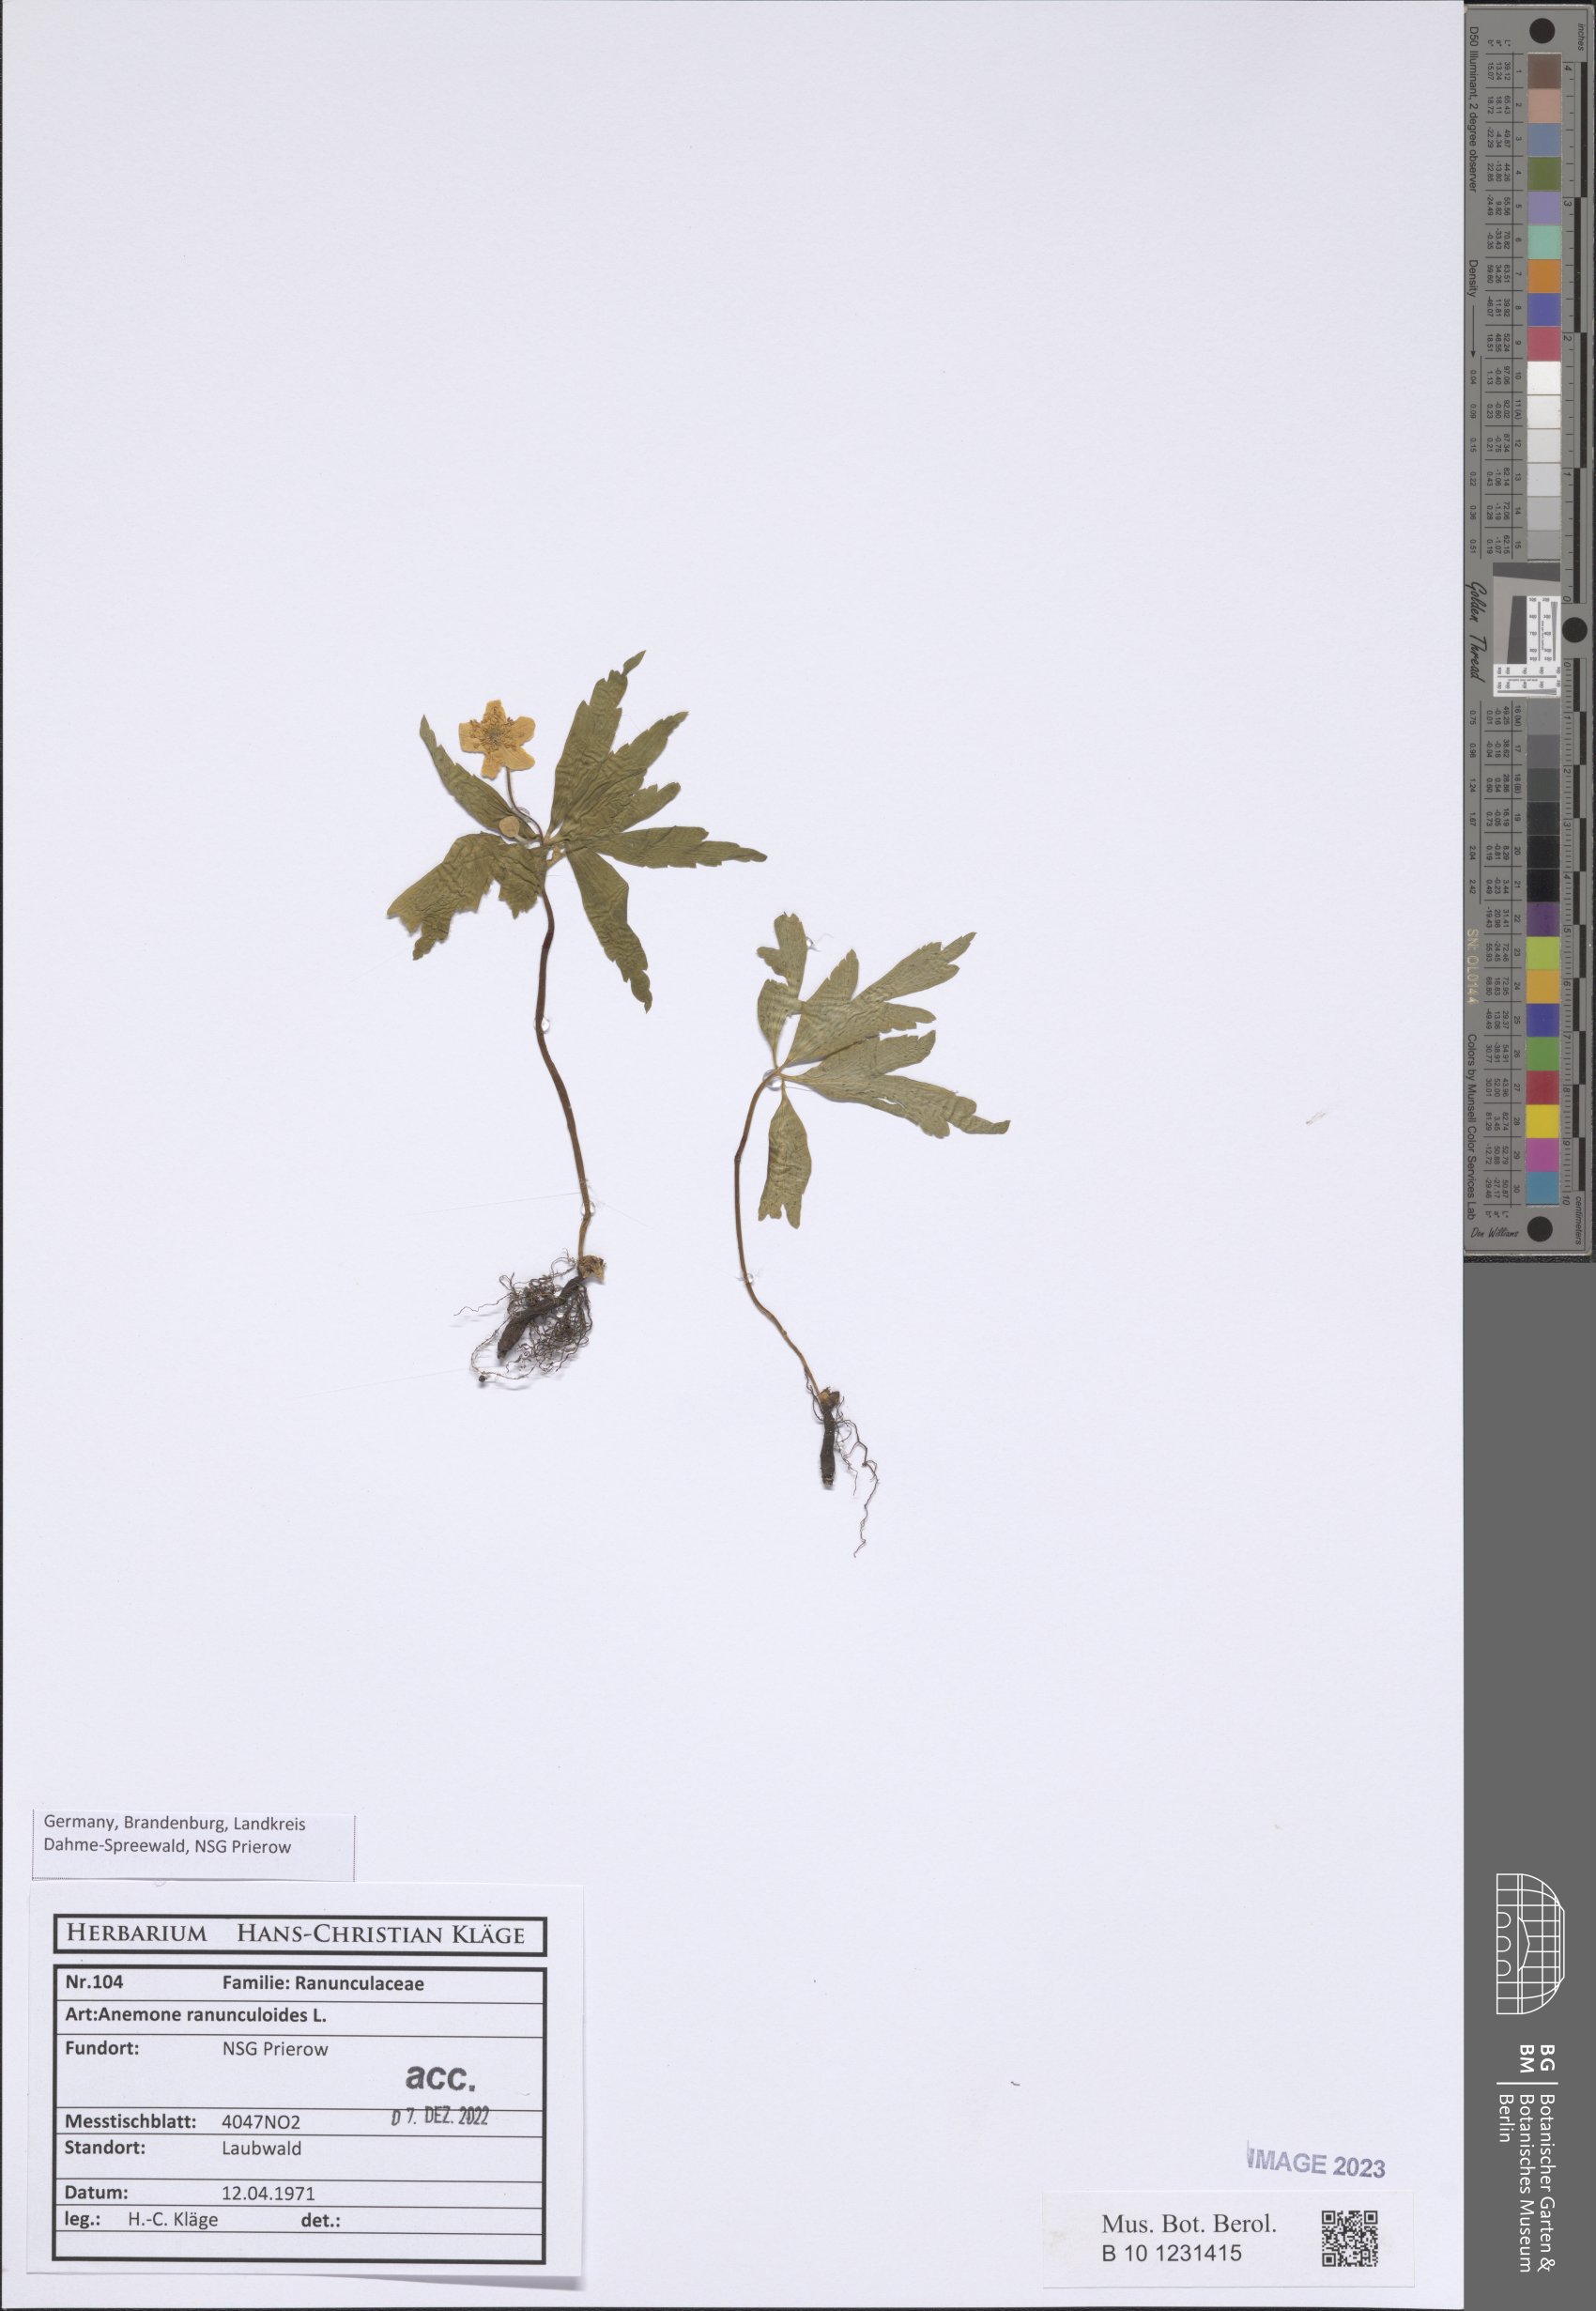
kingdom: Plantae
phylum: Tracheophyta
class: Magnoliopsida
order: Ranunculales
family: Ranunculaceae
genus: Hepatica
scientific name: Hepatica nobilis
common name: Liverleaf
